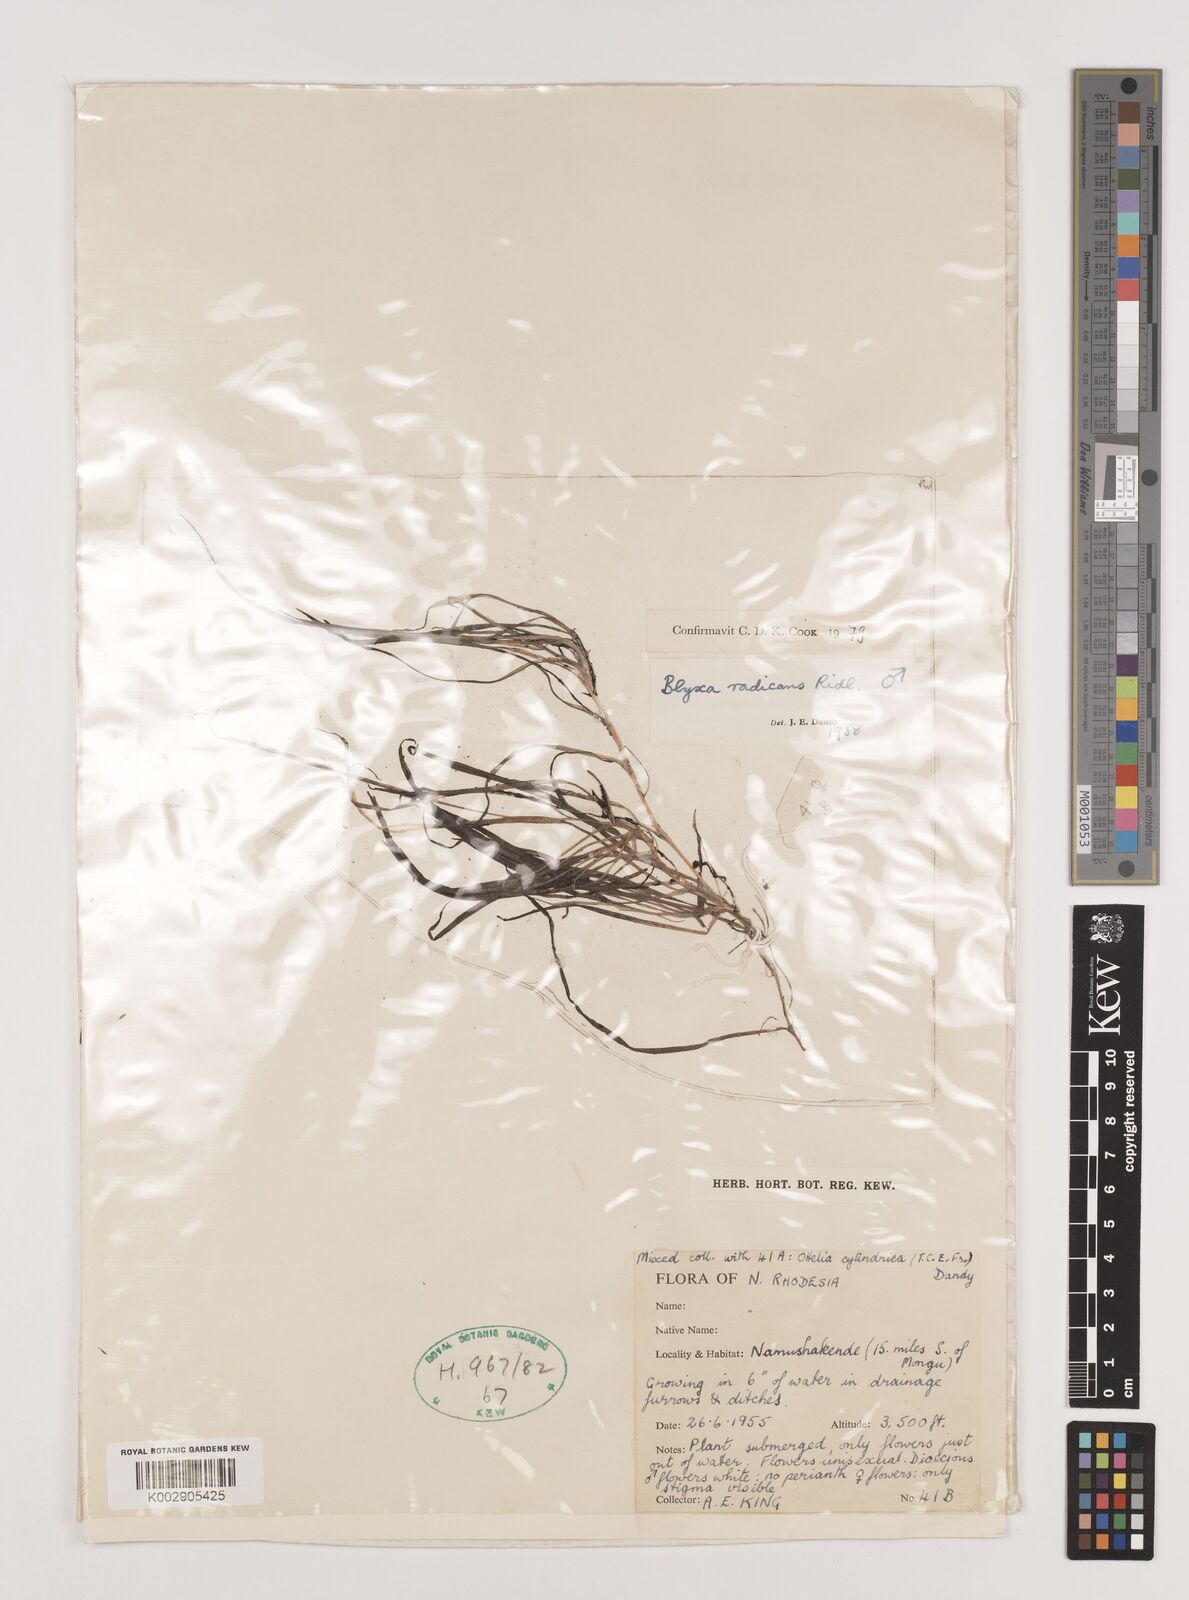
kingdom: Plantae
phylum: Tracheophyta
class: Liliopsida
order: Alismatales
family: Hydrocharitaceae
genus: Blyxa
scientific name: Blyxa radicans
